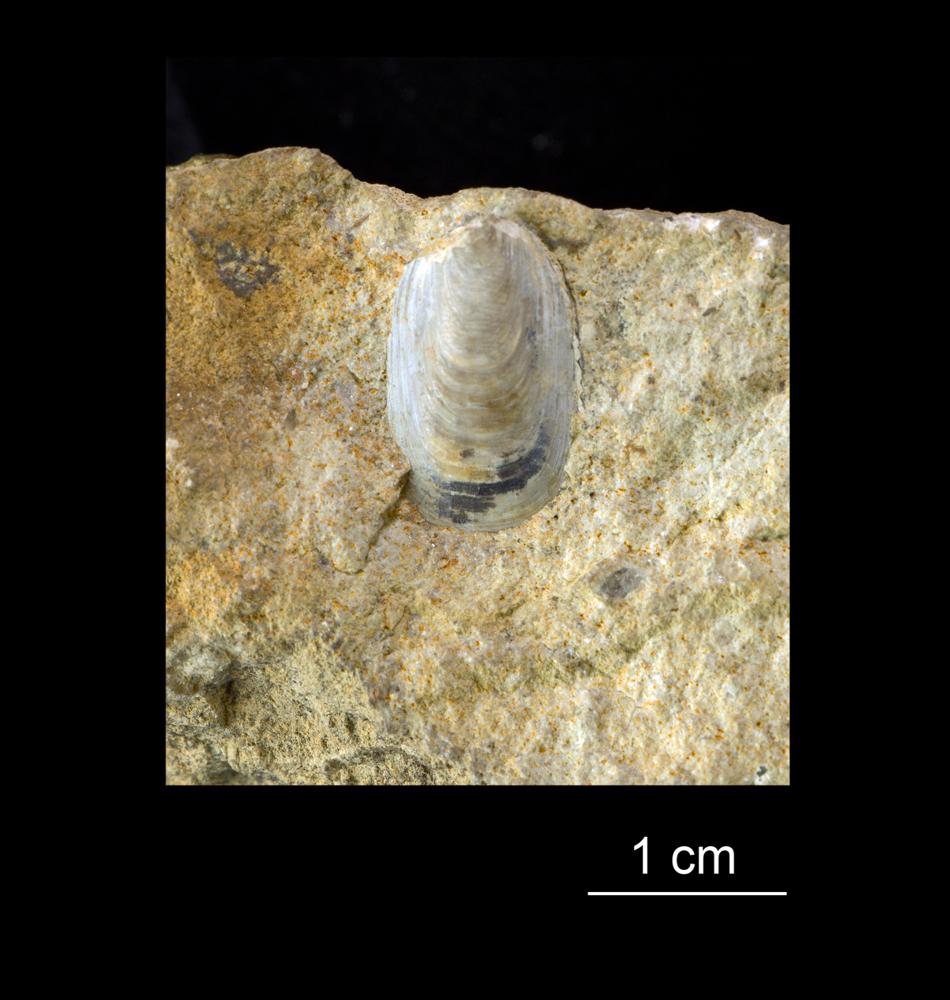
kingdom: Animalia
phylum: Brachiopoda
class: Lingulata
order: Lingulida
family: Obolidae
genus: Lingulella
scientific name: Lingulella
